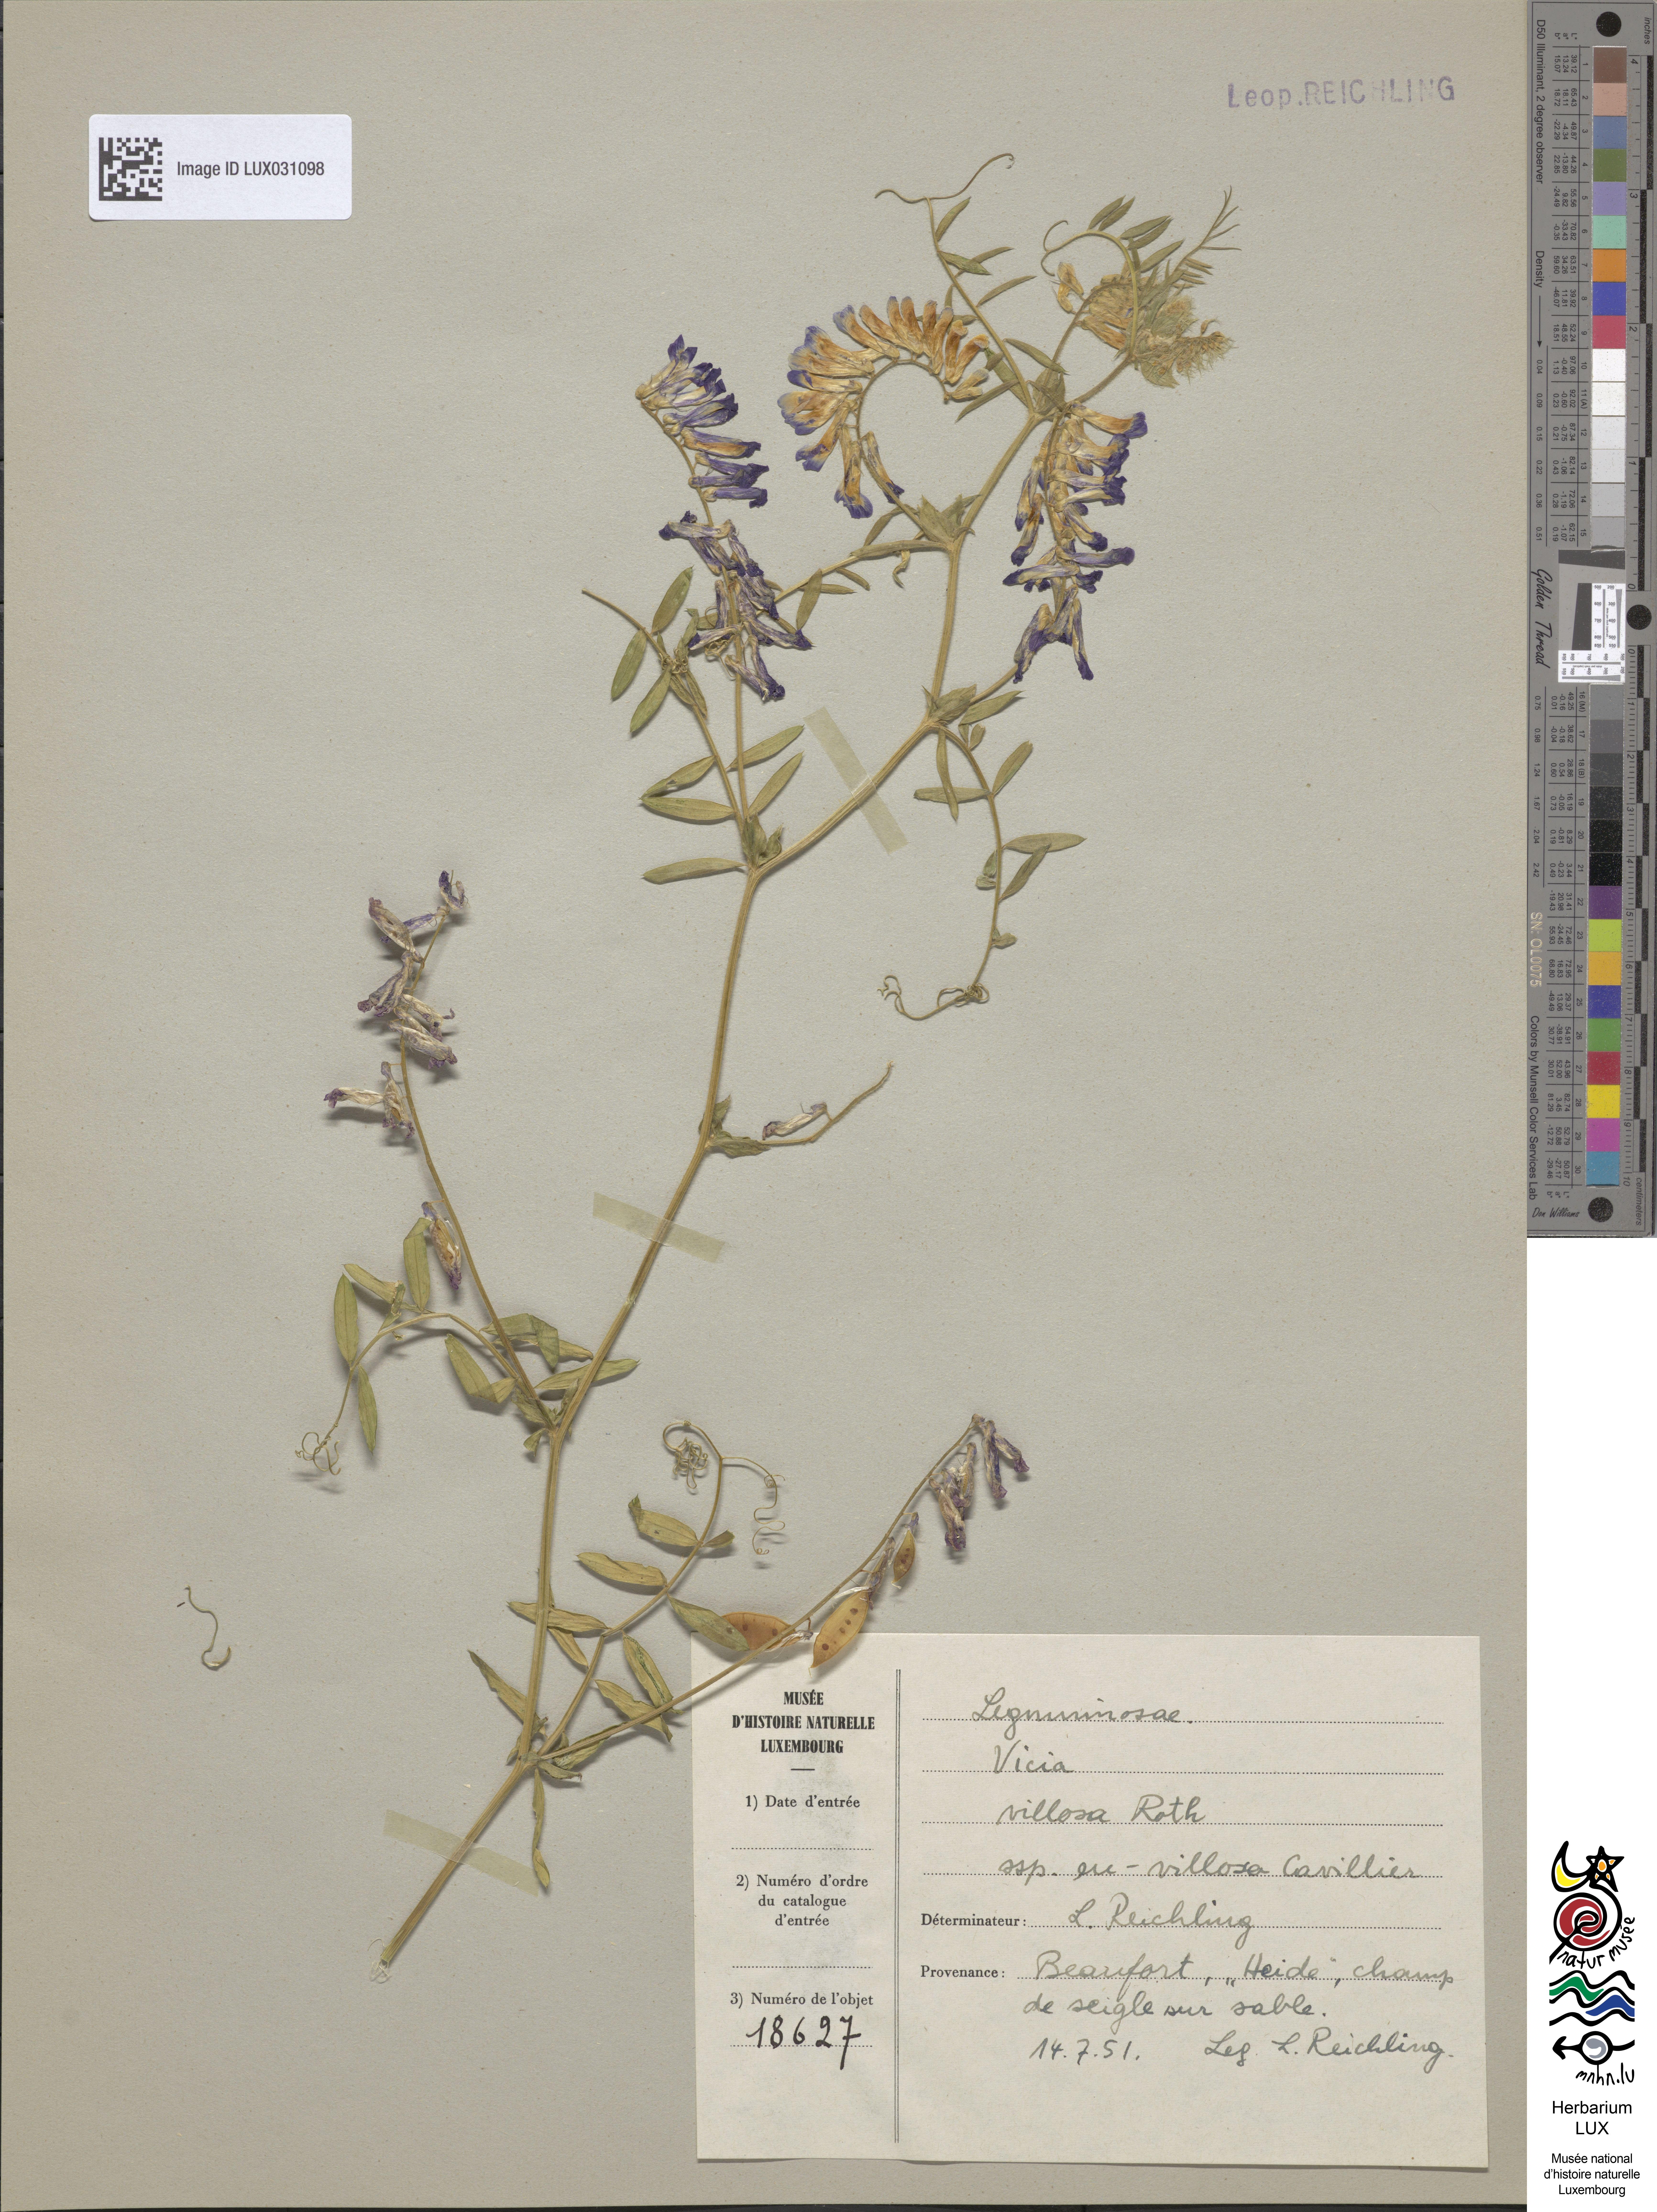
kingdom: Plantae
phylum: Tracheophyta
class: Magnoliopsida
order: Fabales
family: Fabaceae
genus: Vicia
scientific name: Vicia villosa
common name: Fodder vetch
